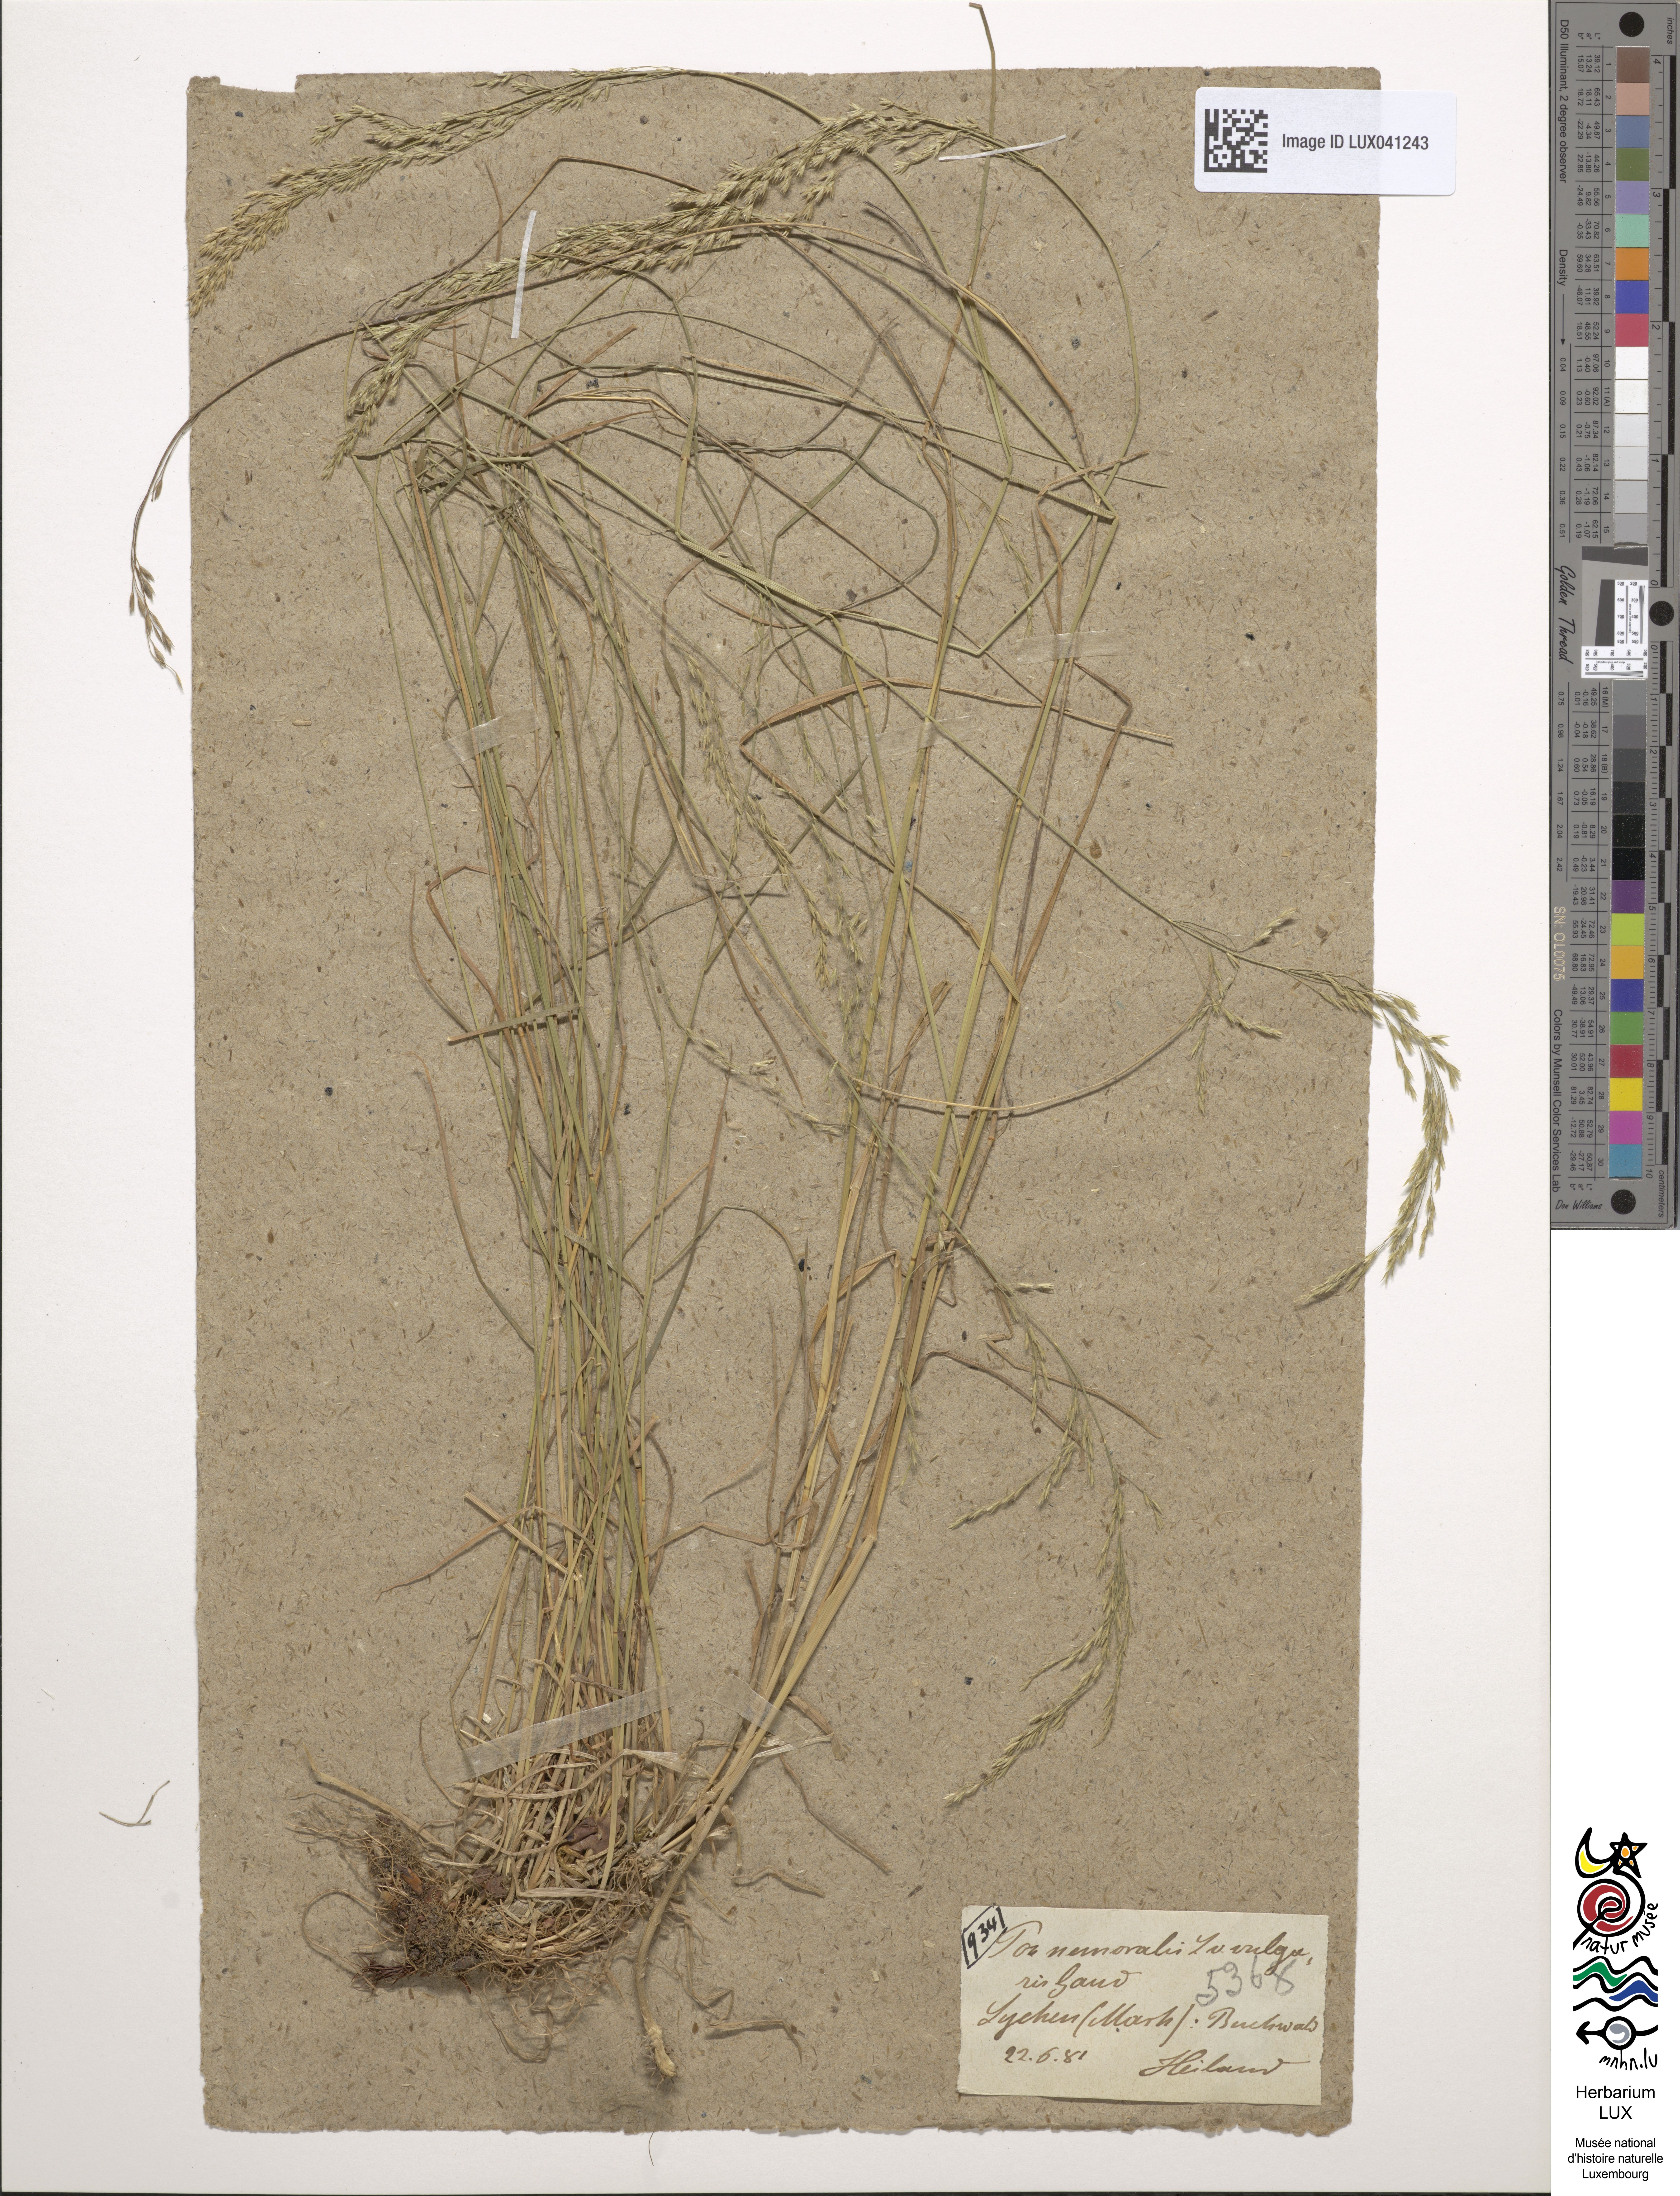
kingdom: Plantae
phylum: Tracheophyta
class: Liliopsida
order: Poales
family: Poaceae
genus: Poa
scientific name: Poa nemoralis
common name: Wood bluegrass
